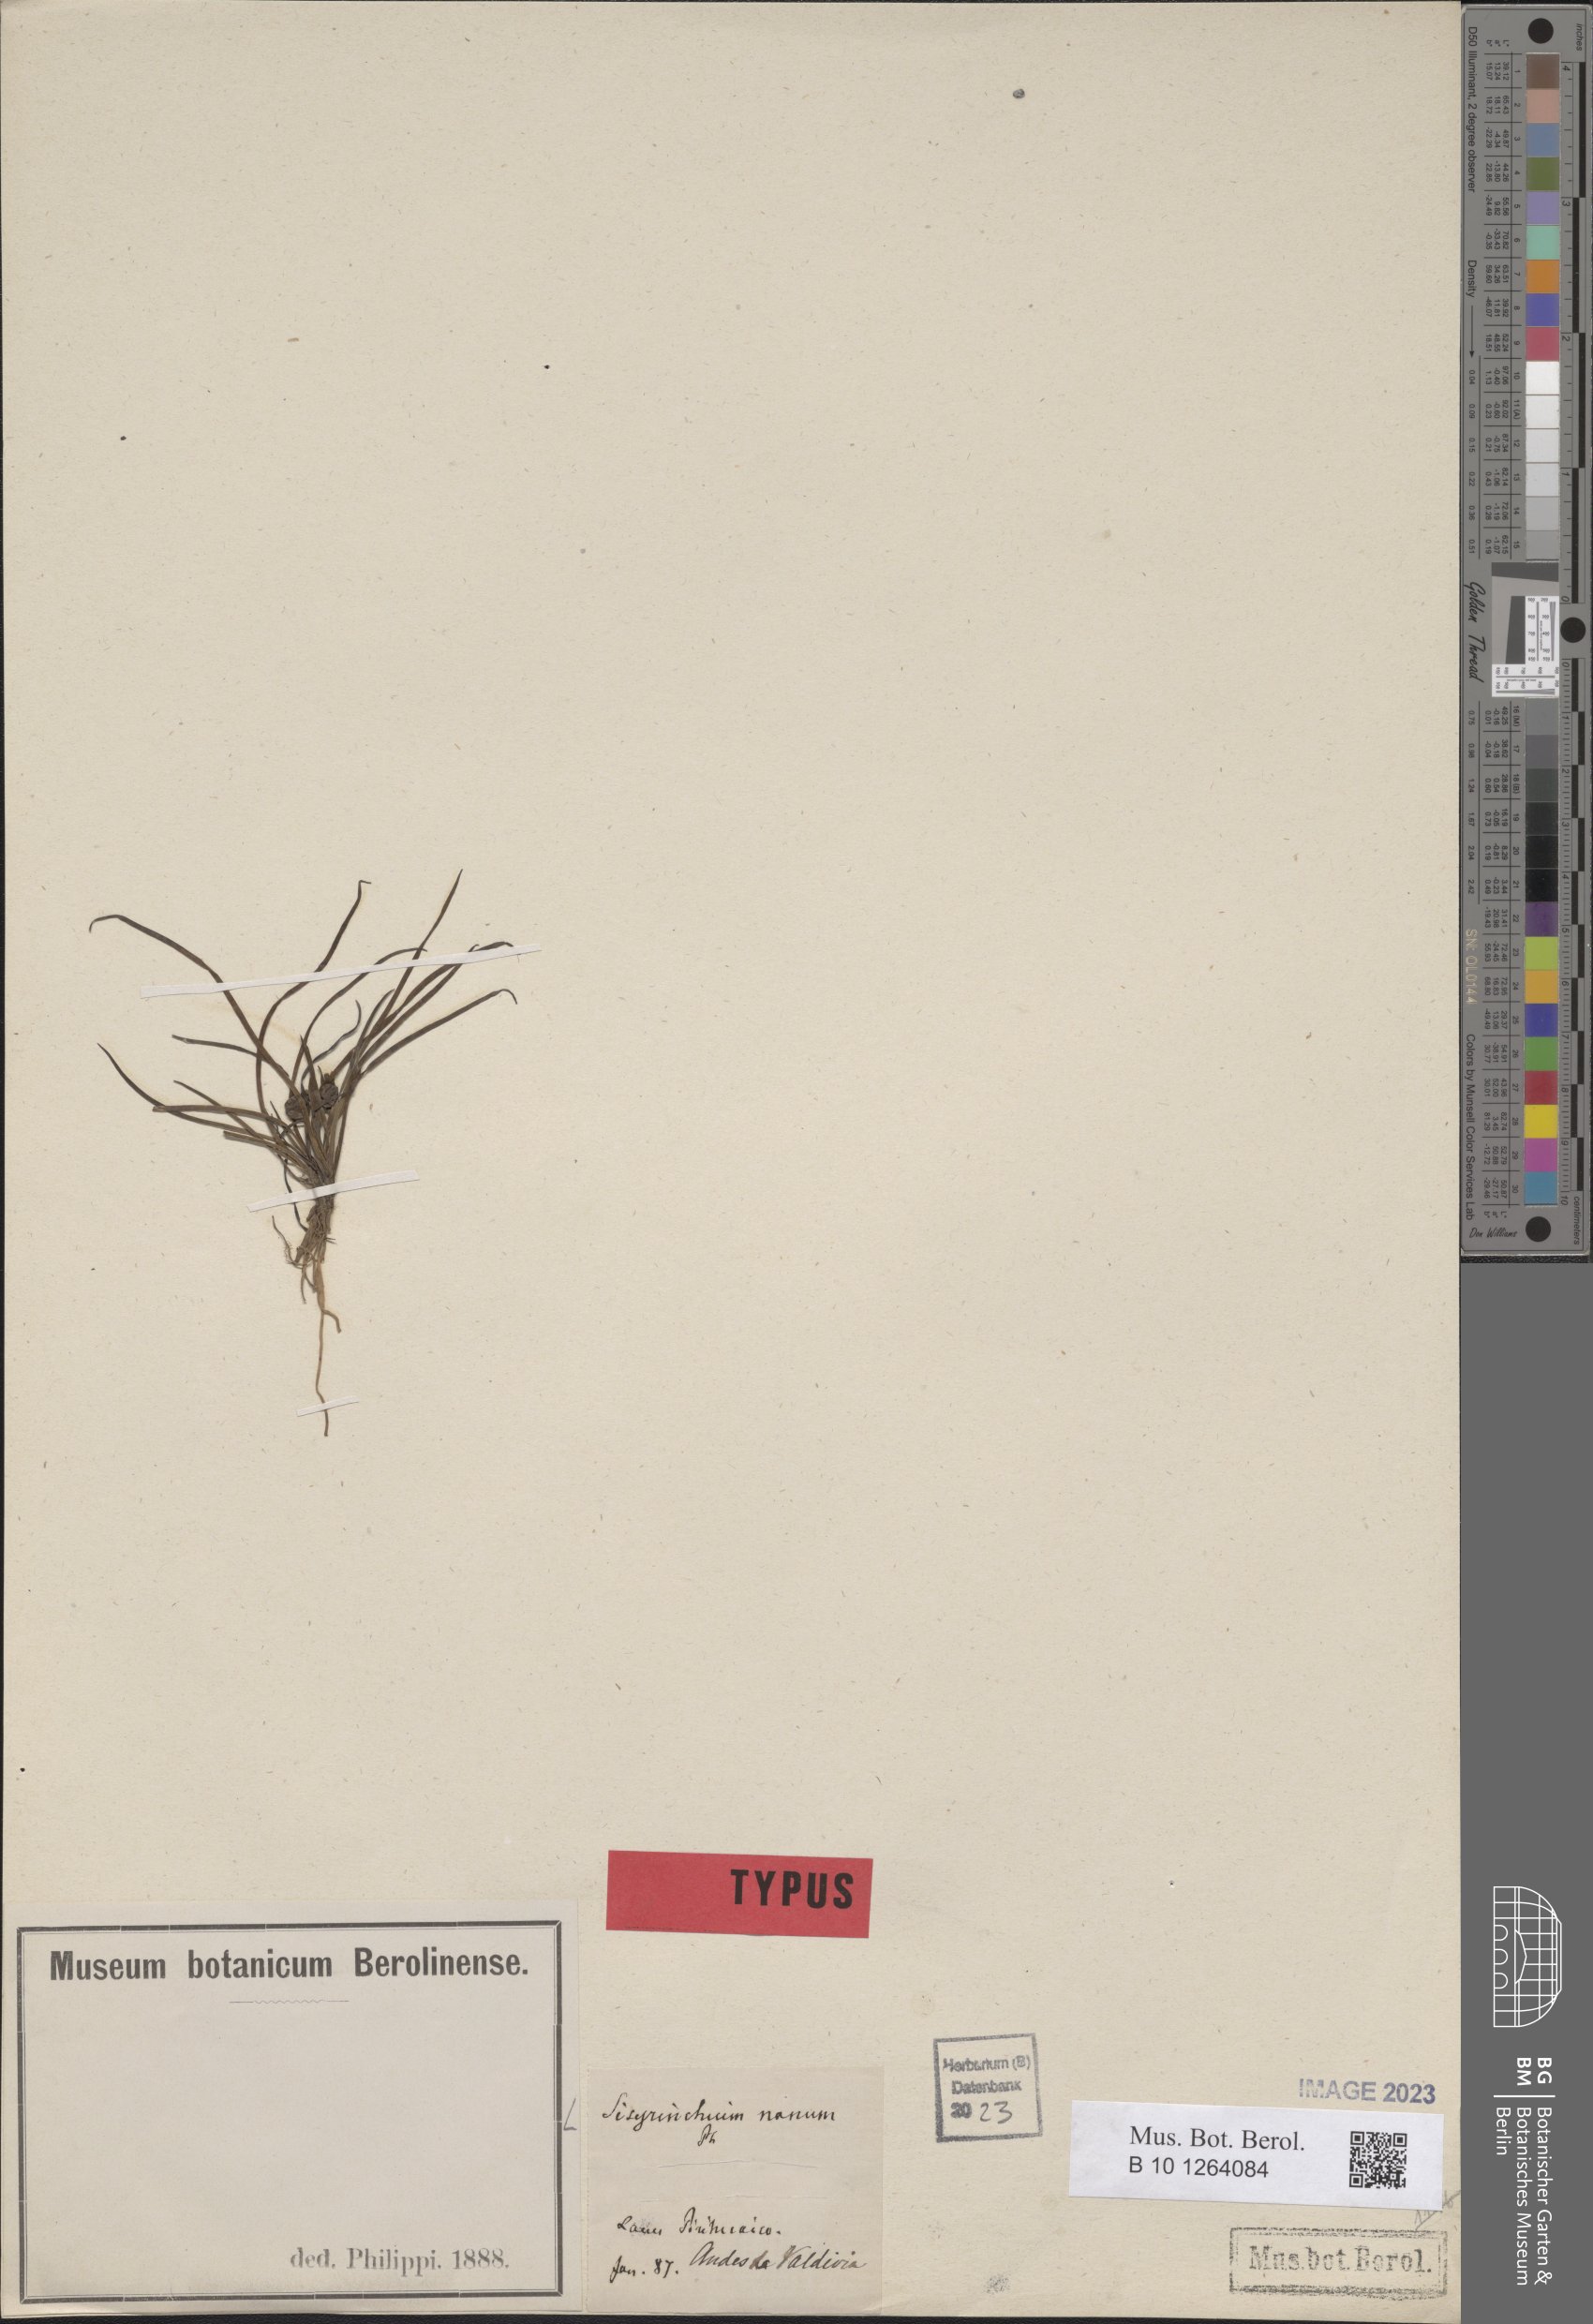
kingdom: Plantae
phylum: Tracheophyta
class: Liliopsida
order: Asparagales
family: Iridaceae
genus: Sisyrinchium
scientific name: Sisyrinchium nanum
